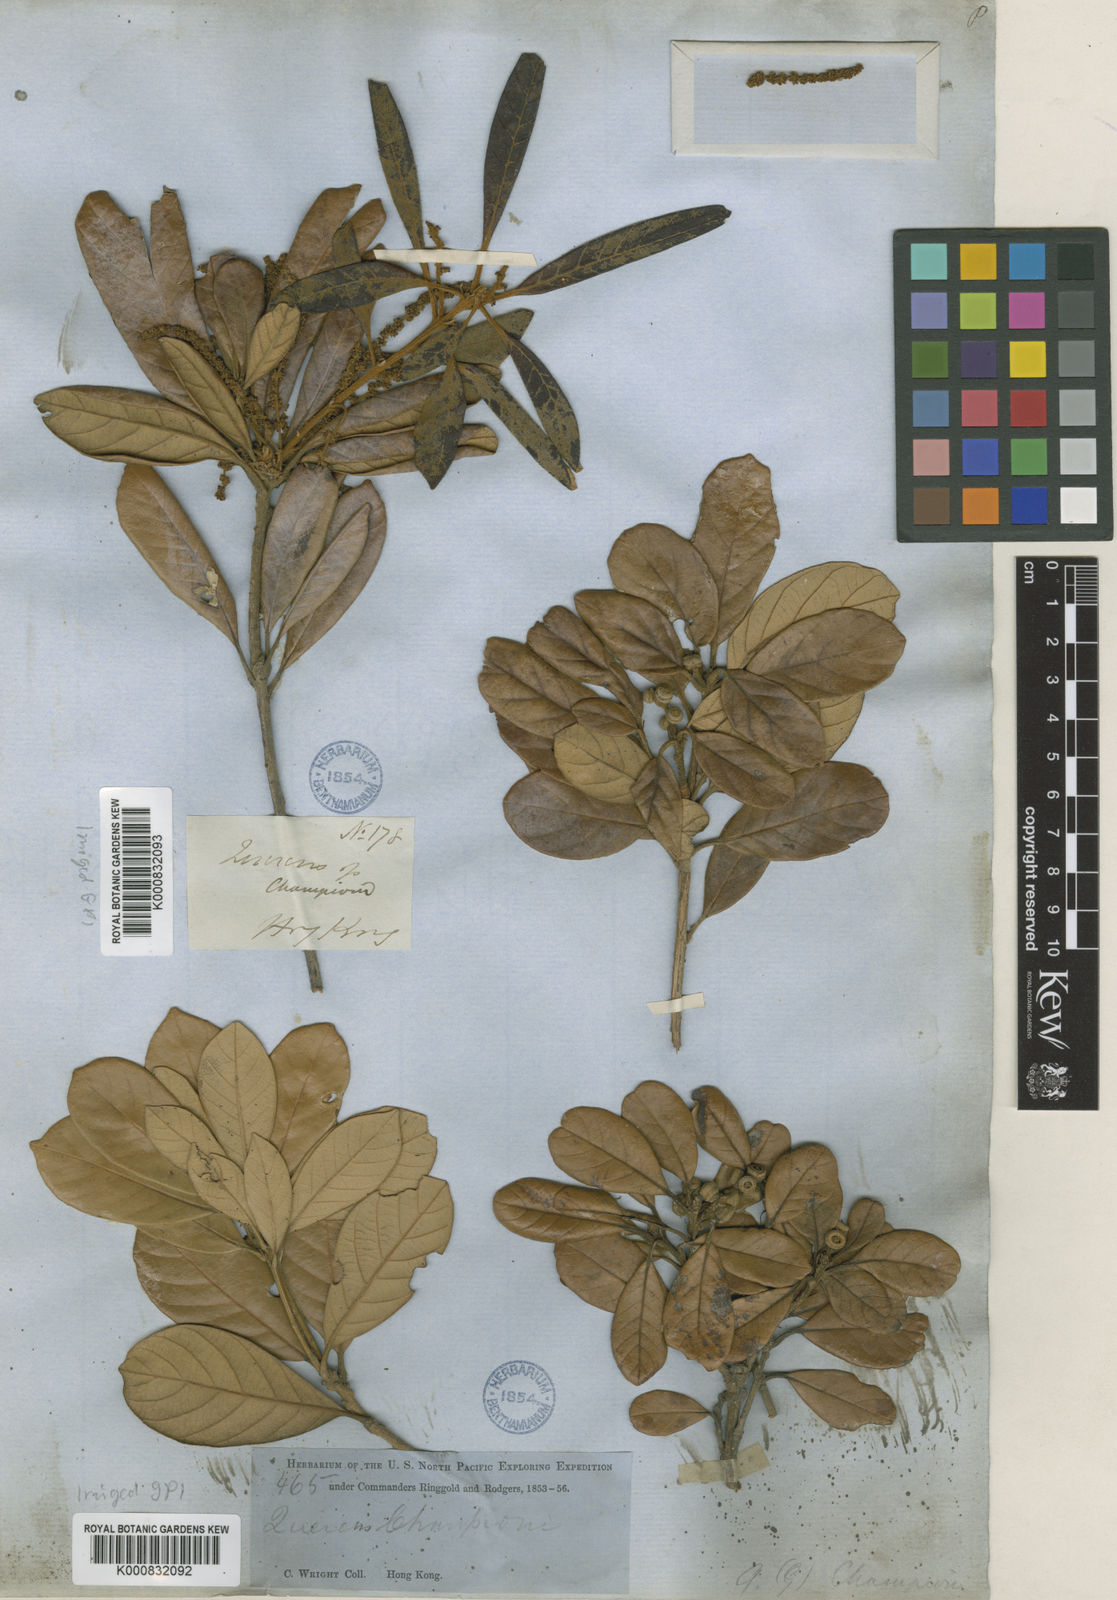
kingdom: Plantae
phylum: Tracheophyta
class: Magnoliopsida
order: Fagales
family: Fagaceae
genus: Quercus
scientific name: Quercus championii
